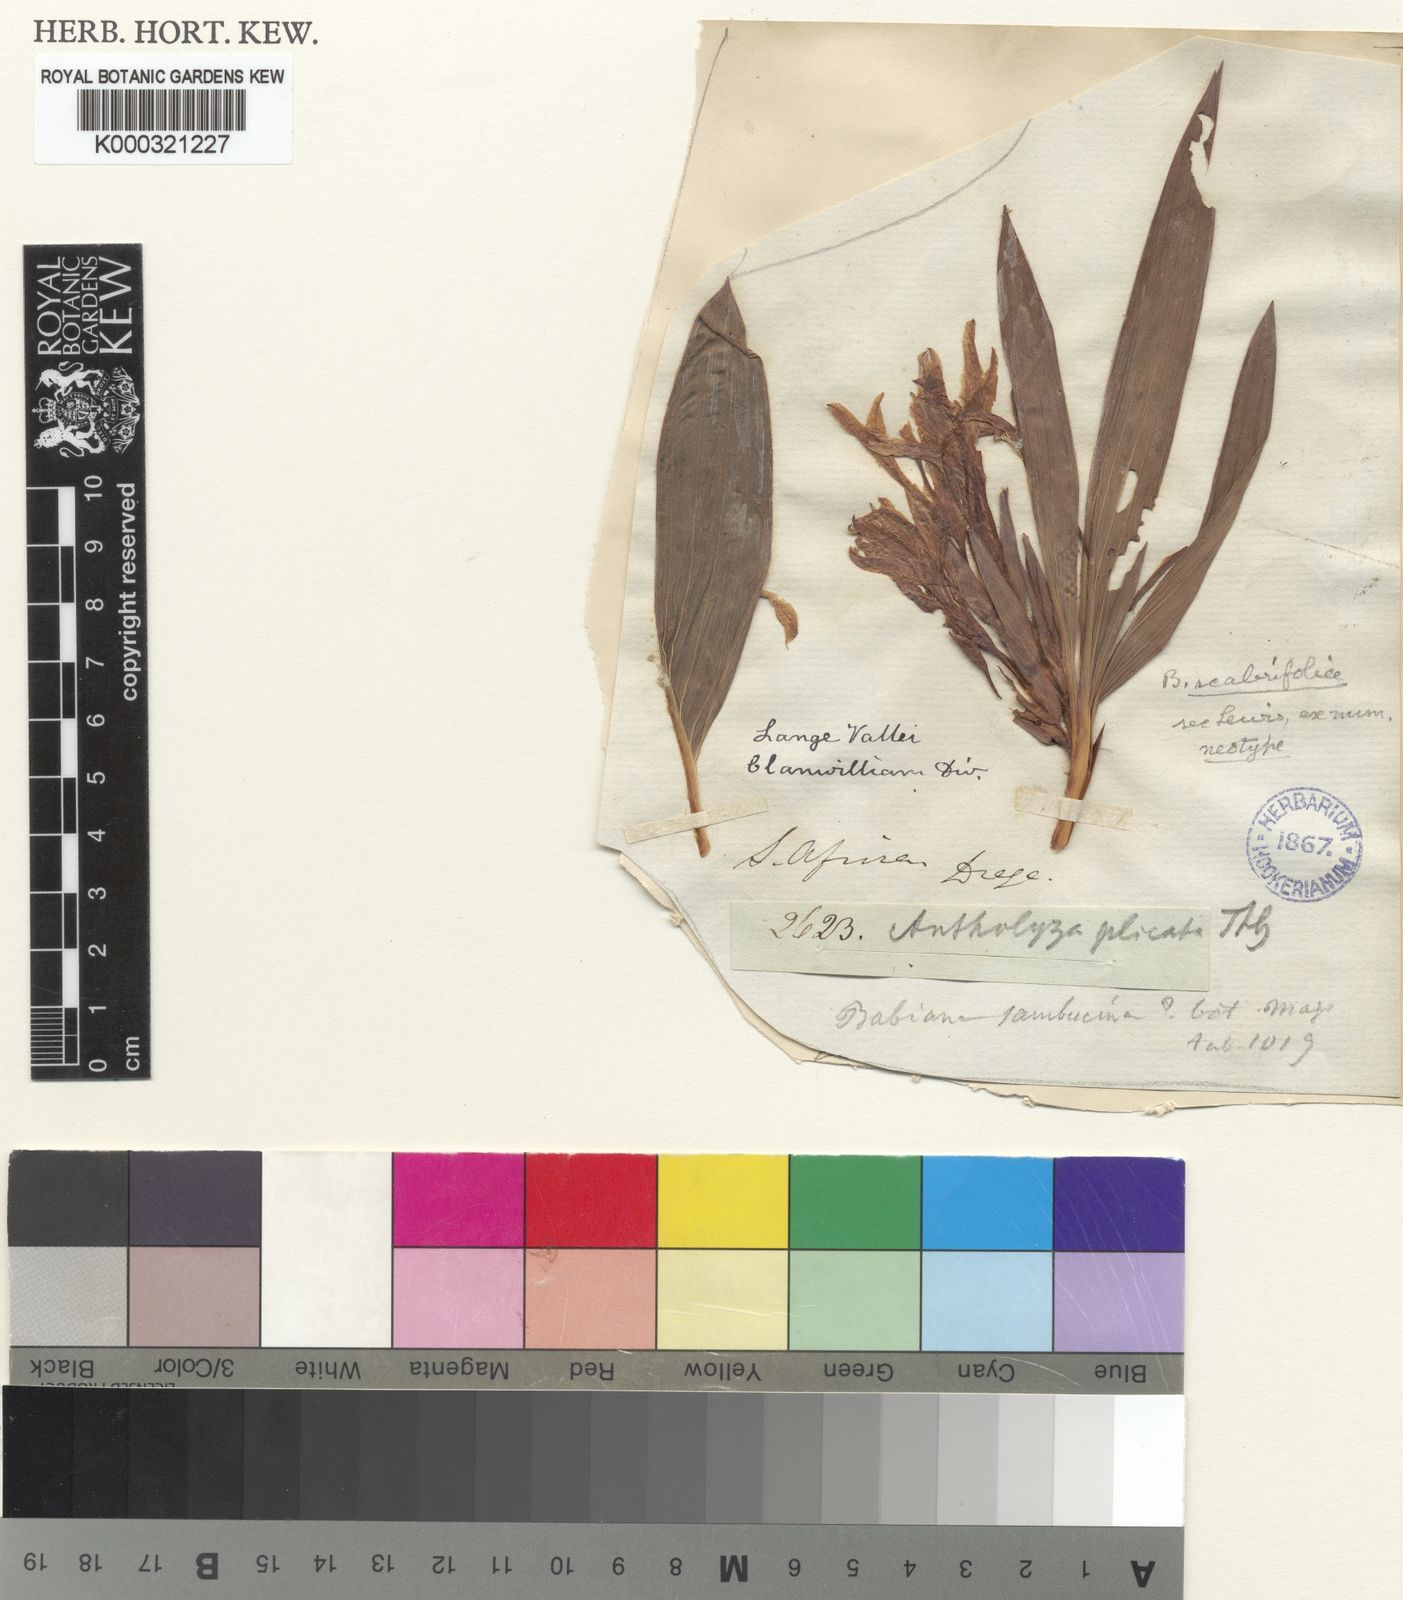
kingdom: Plantae
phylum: Tracheophyta
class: Liliopsida
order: Asparagales
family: Iridaceae
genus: Babiana
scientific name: Babiana scabrifolia
